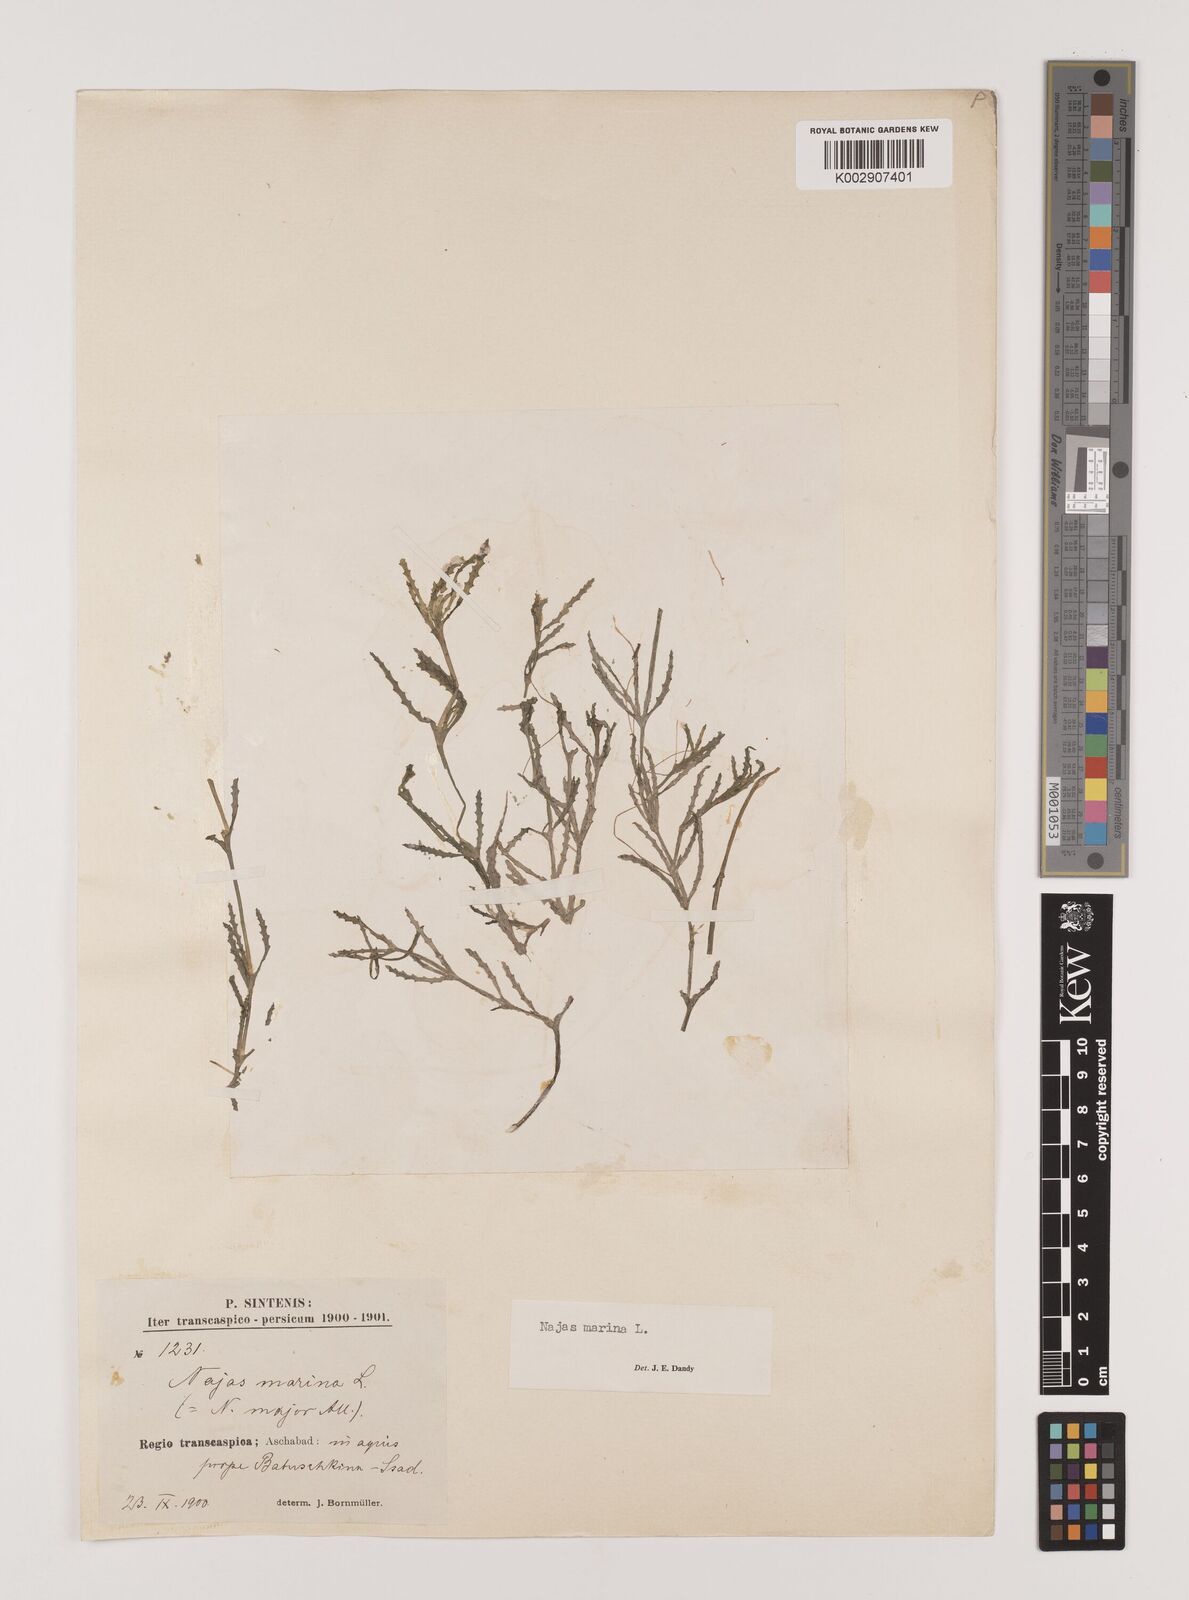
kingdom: Plantae
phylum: Tracheophyta
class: Liliopsida
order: Alismatales
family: Hydrocharitaceae
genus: Najas
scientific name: Najas marina
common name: Holly-leaved naiad
